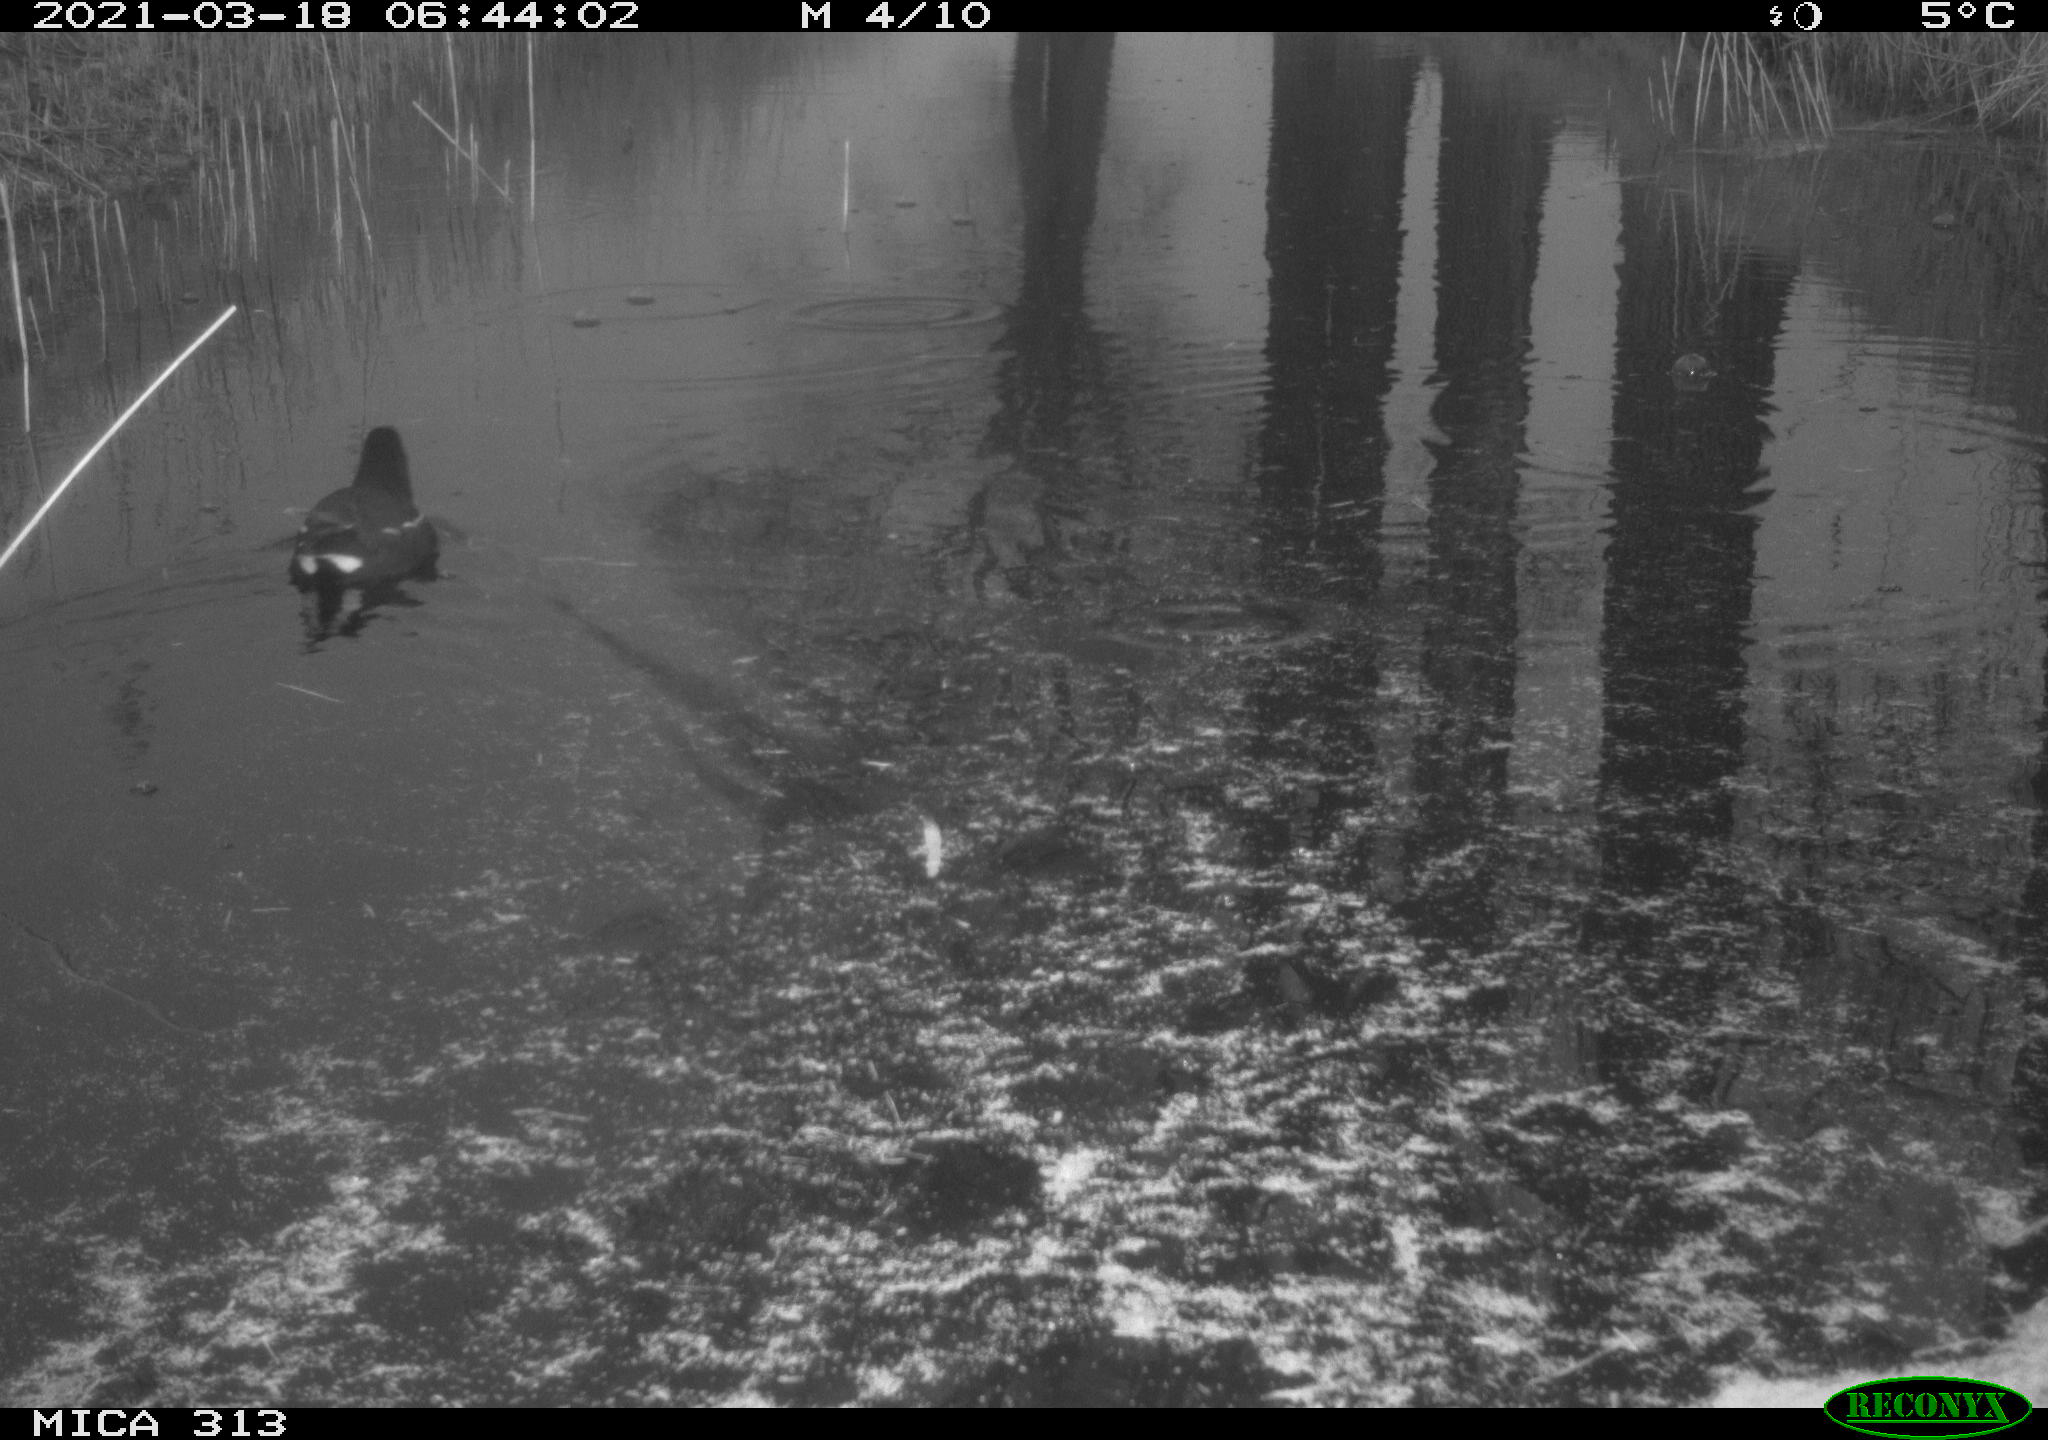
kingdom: Animalia
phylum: Chordata
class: Aves
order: Gruiformes
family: Rallidae
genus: Gallinula
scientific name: Gallinula chloropus
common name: Common moorhen
